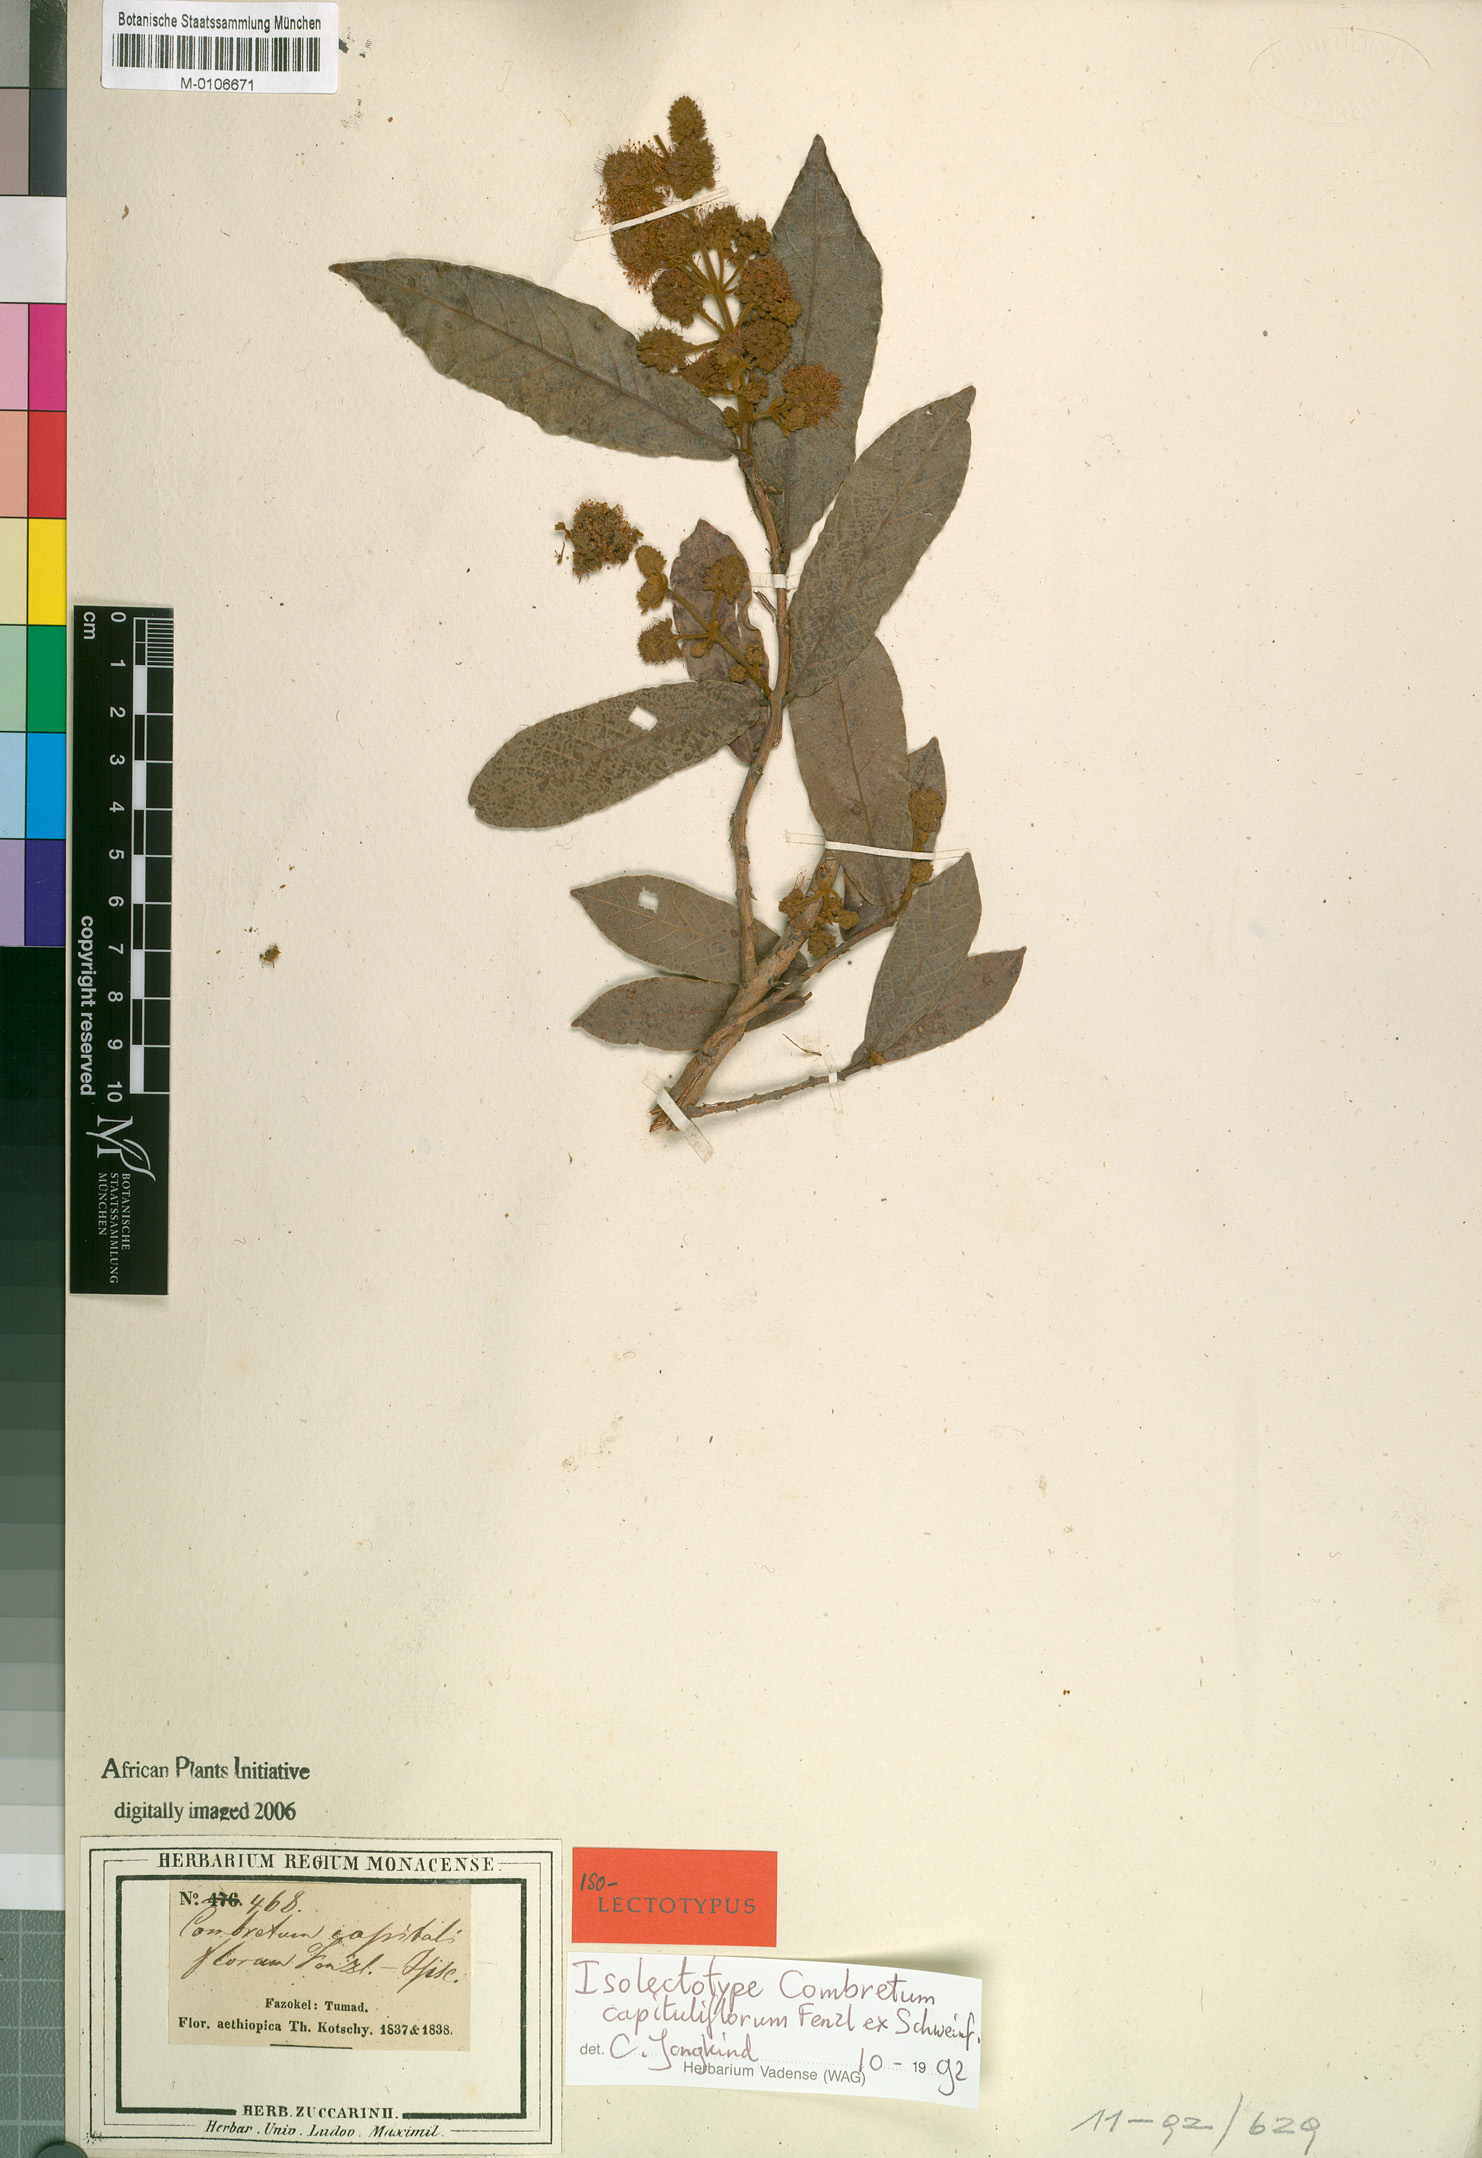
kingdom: Plantae
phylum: Tracheophyta
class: Magnoliopsida
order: Myrtales
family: Combretaceae
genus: Combretum
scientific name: Combretum capituliflorum
